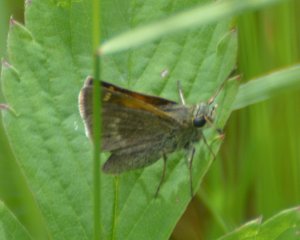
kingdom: Animalia
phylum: Arthropoda
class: Insecta
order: Lepidoptera
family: Hesperiidae
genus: Polites
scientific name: Polites themistocles
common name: Tawny-edged Skipper
